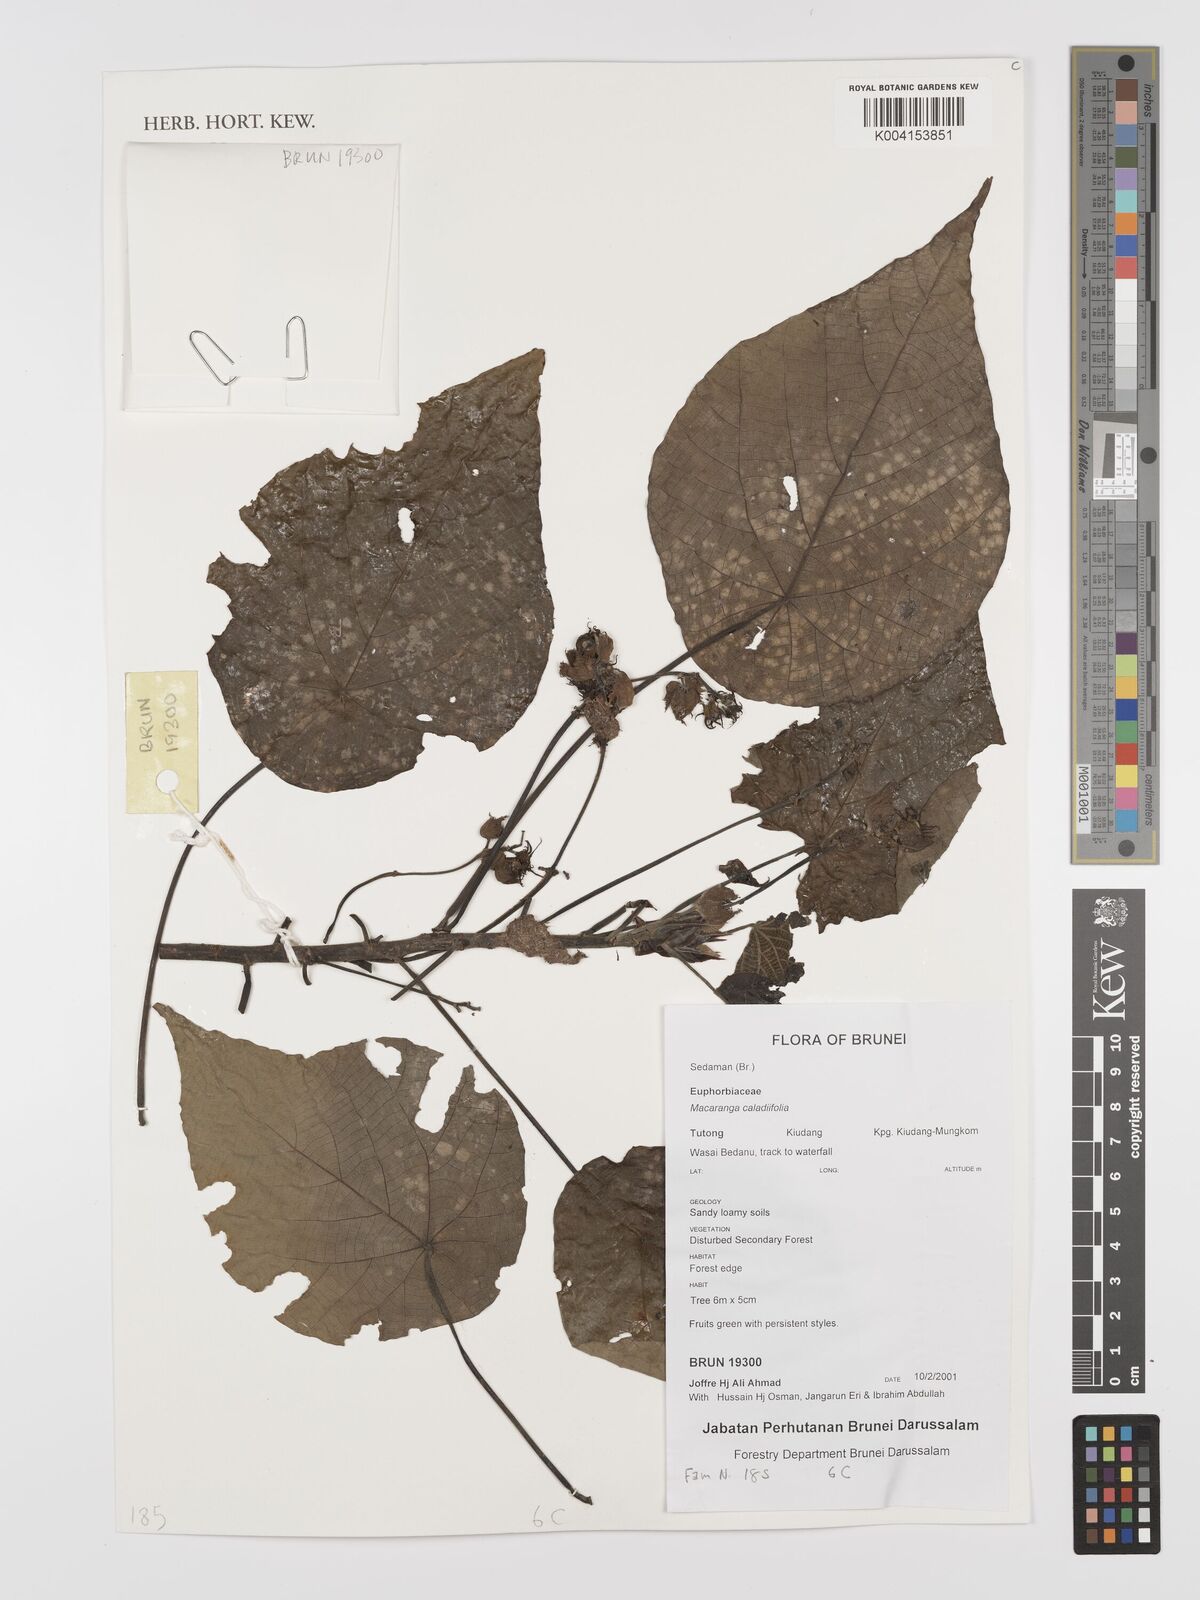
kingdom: Plantae
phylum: Tracheophyta
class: Magnoliopsida
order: Malpighiales
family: Euphorbiaceae
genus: Macaranga
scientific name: Macaranga caladiifolia
